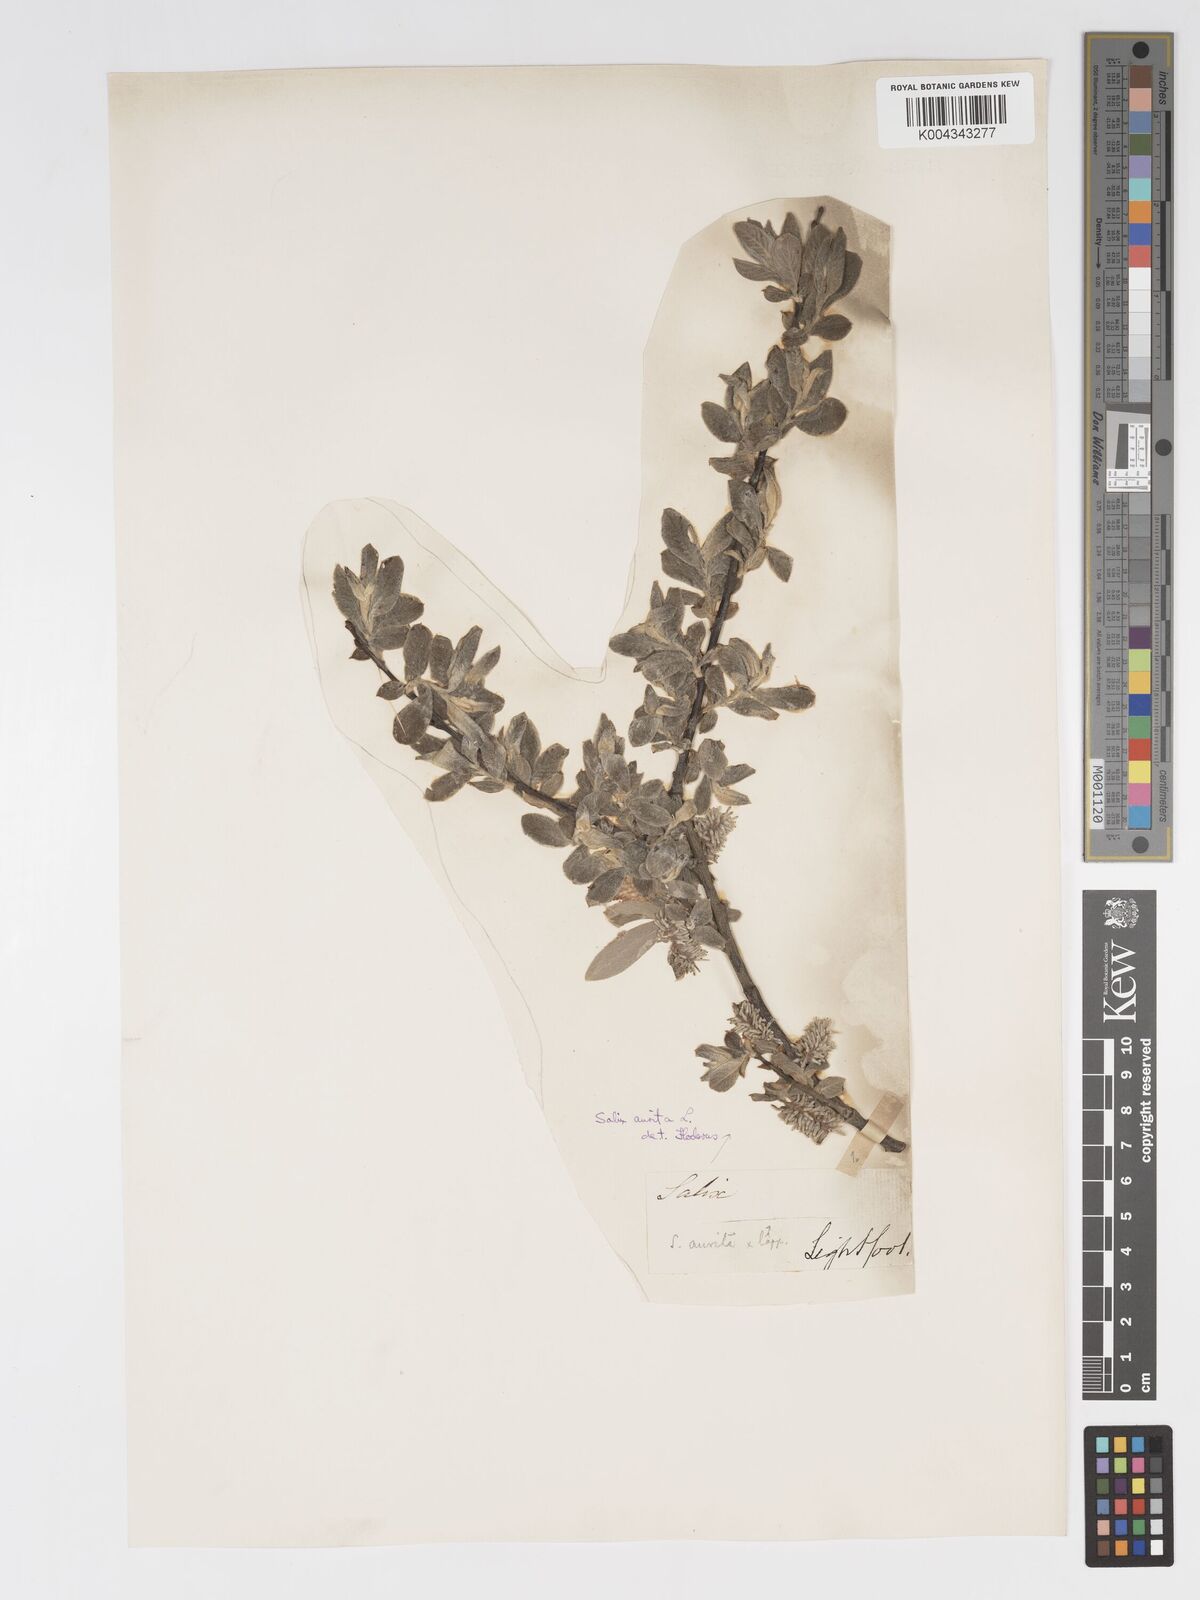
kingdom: Plantae
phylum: Tracheophyta
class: Magnoliopsida
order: Malpighiales
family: Salicaceae
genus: Salix
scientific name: Salix aurita
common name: Eared willow
